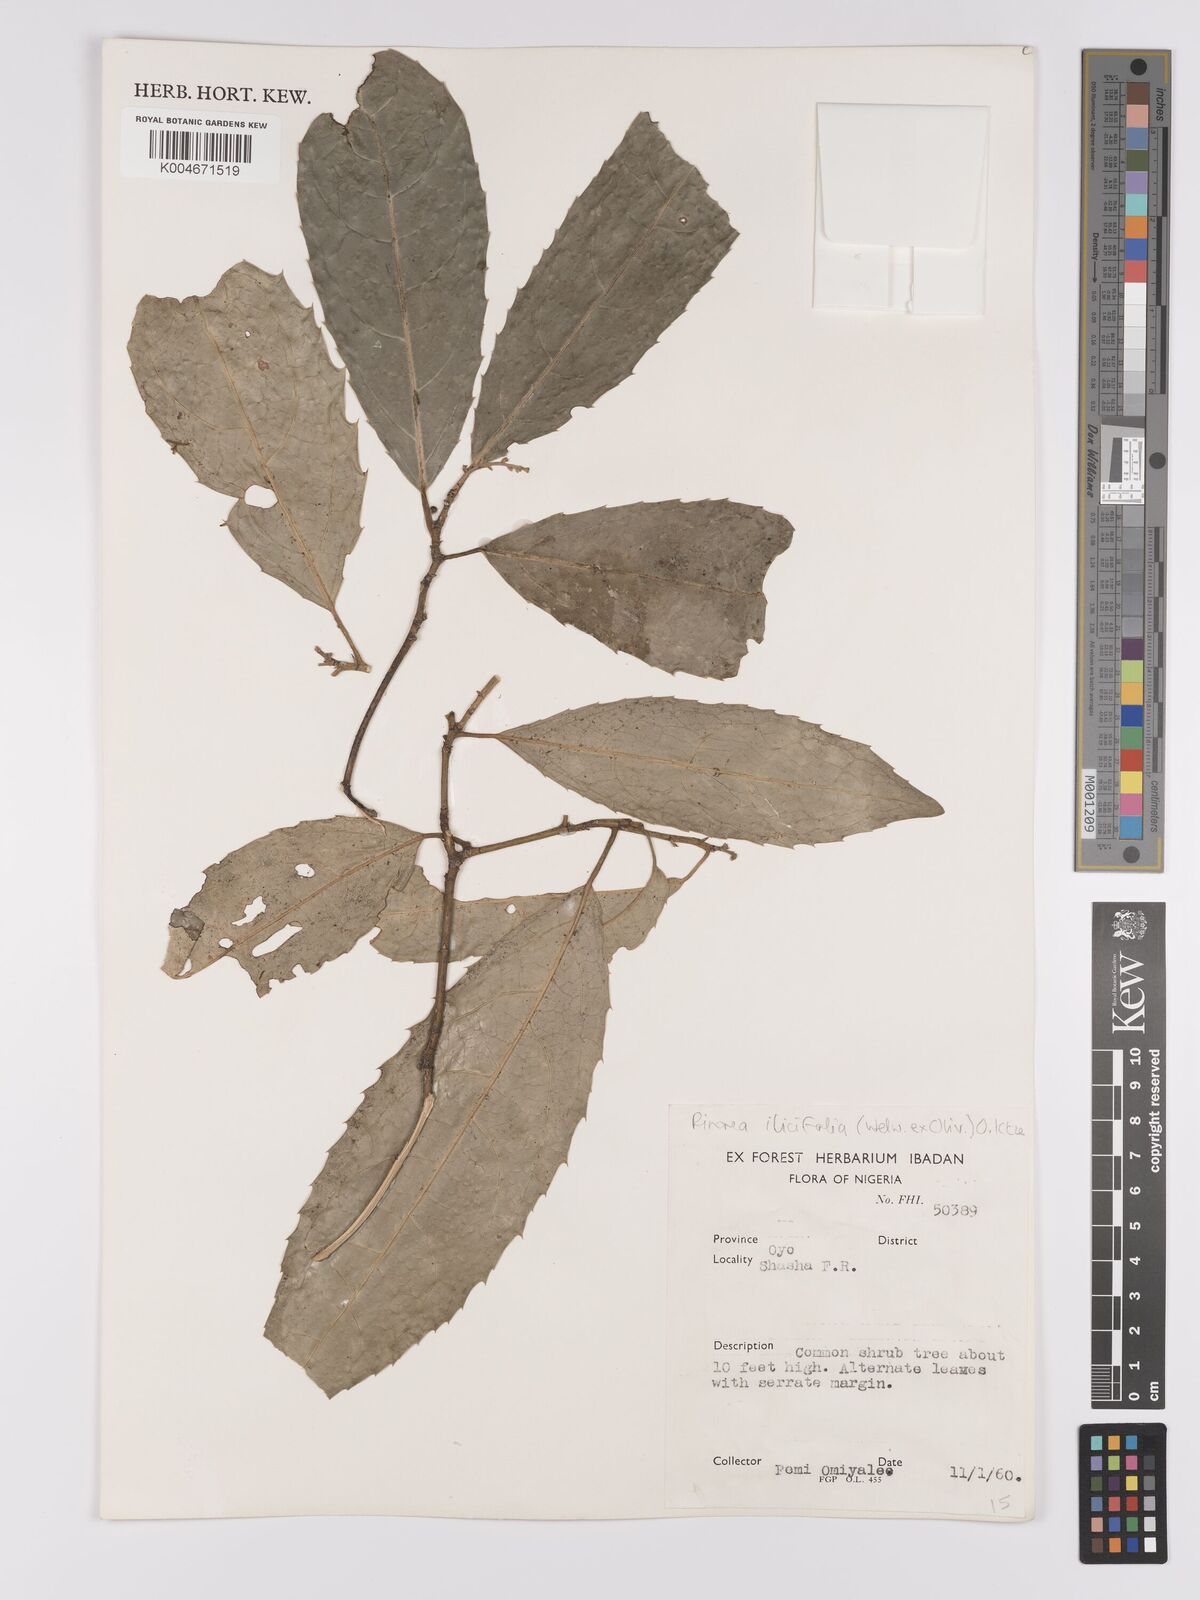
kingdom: Plantae
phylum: Tracheophyta
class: Magnoliopsida
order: Malpighiales
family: Violaceae
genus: Rinorea
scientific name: Rinorea ilicifolia
